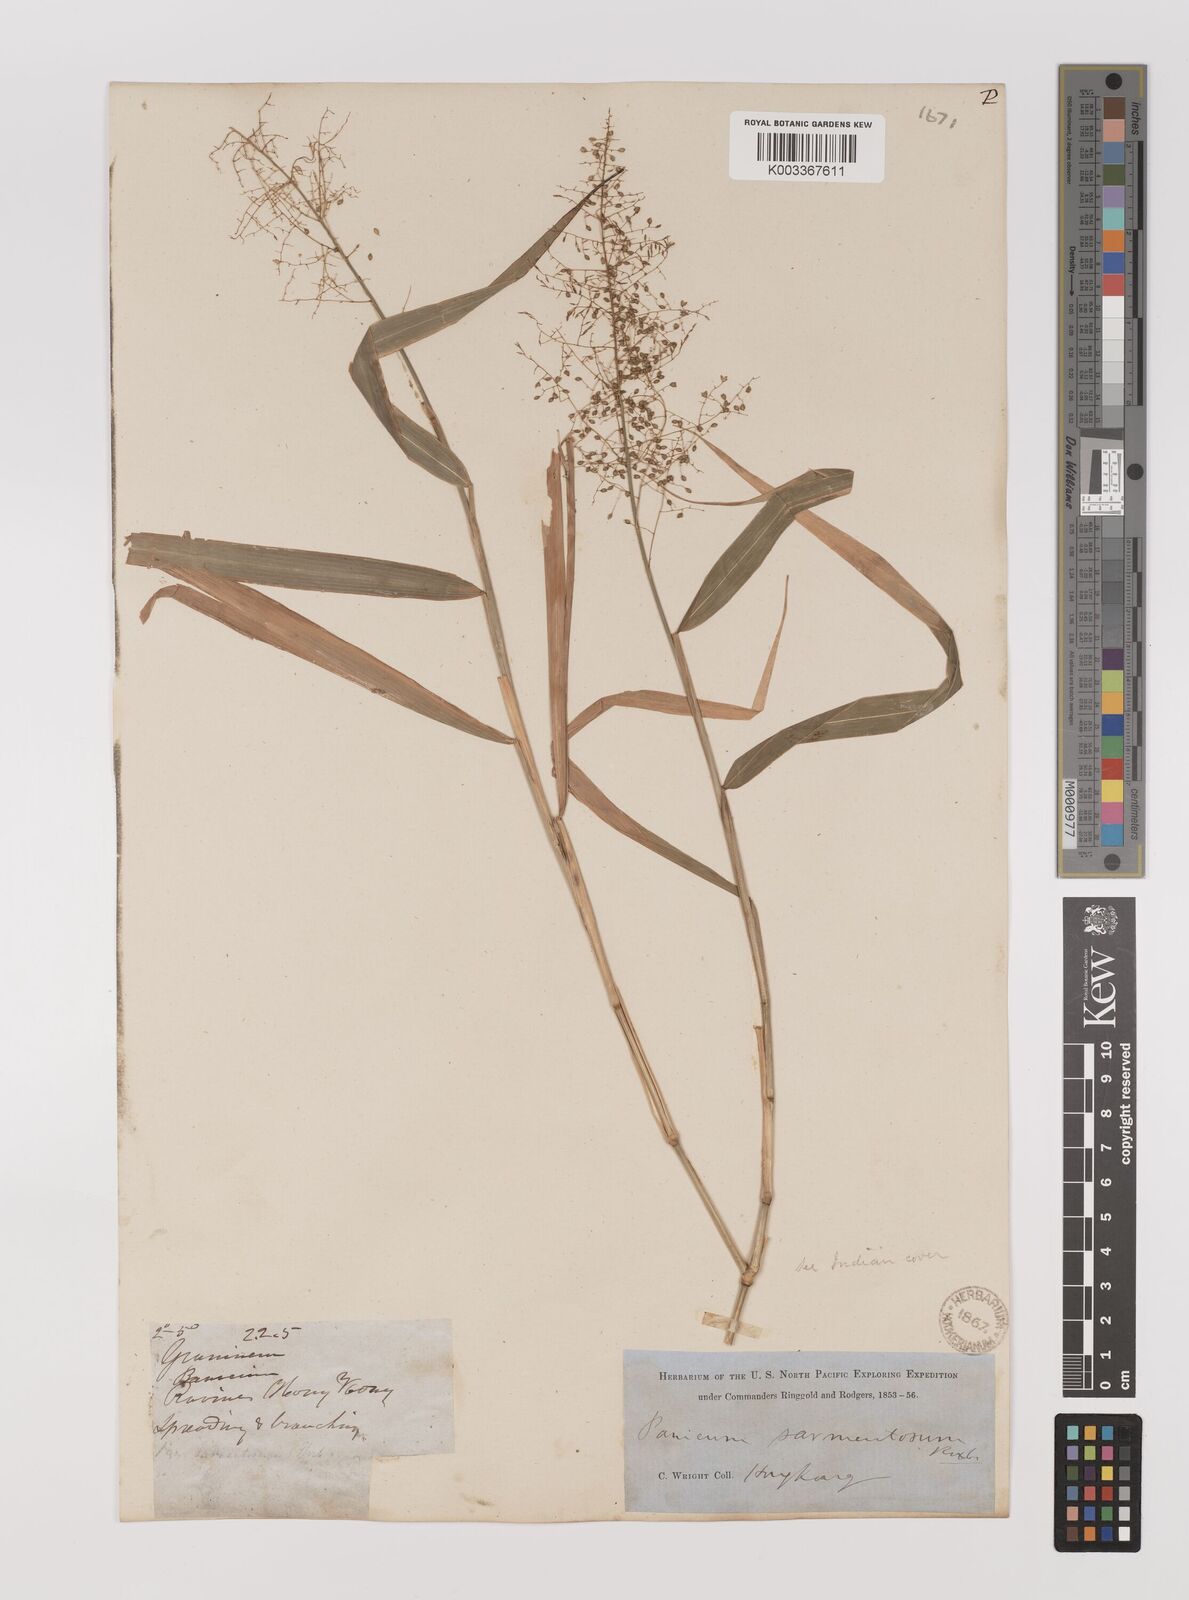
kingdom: Plantae
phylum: Tracheophyta
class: Liliopsida
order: Poales
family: Poaceae
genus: Panicum
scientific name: Panicum incomtum
